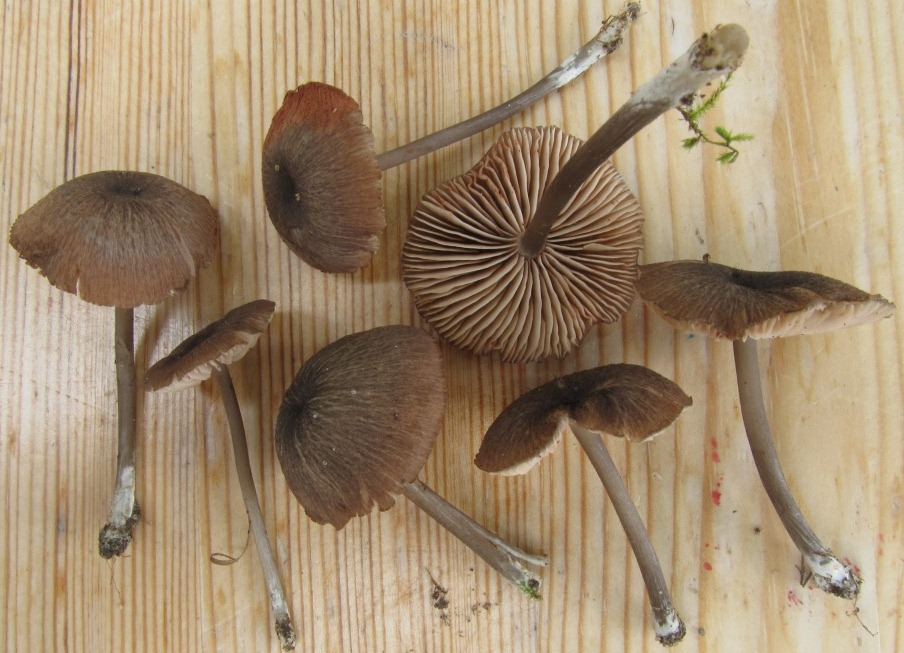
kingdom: Fungi
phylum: Basidiomycota
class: Agaricomycetes
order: Agaricales
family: Entolomataceae
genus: Entoloma
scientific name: Entoloma porphyrogriseum
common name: porfyrgrå rødblad
